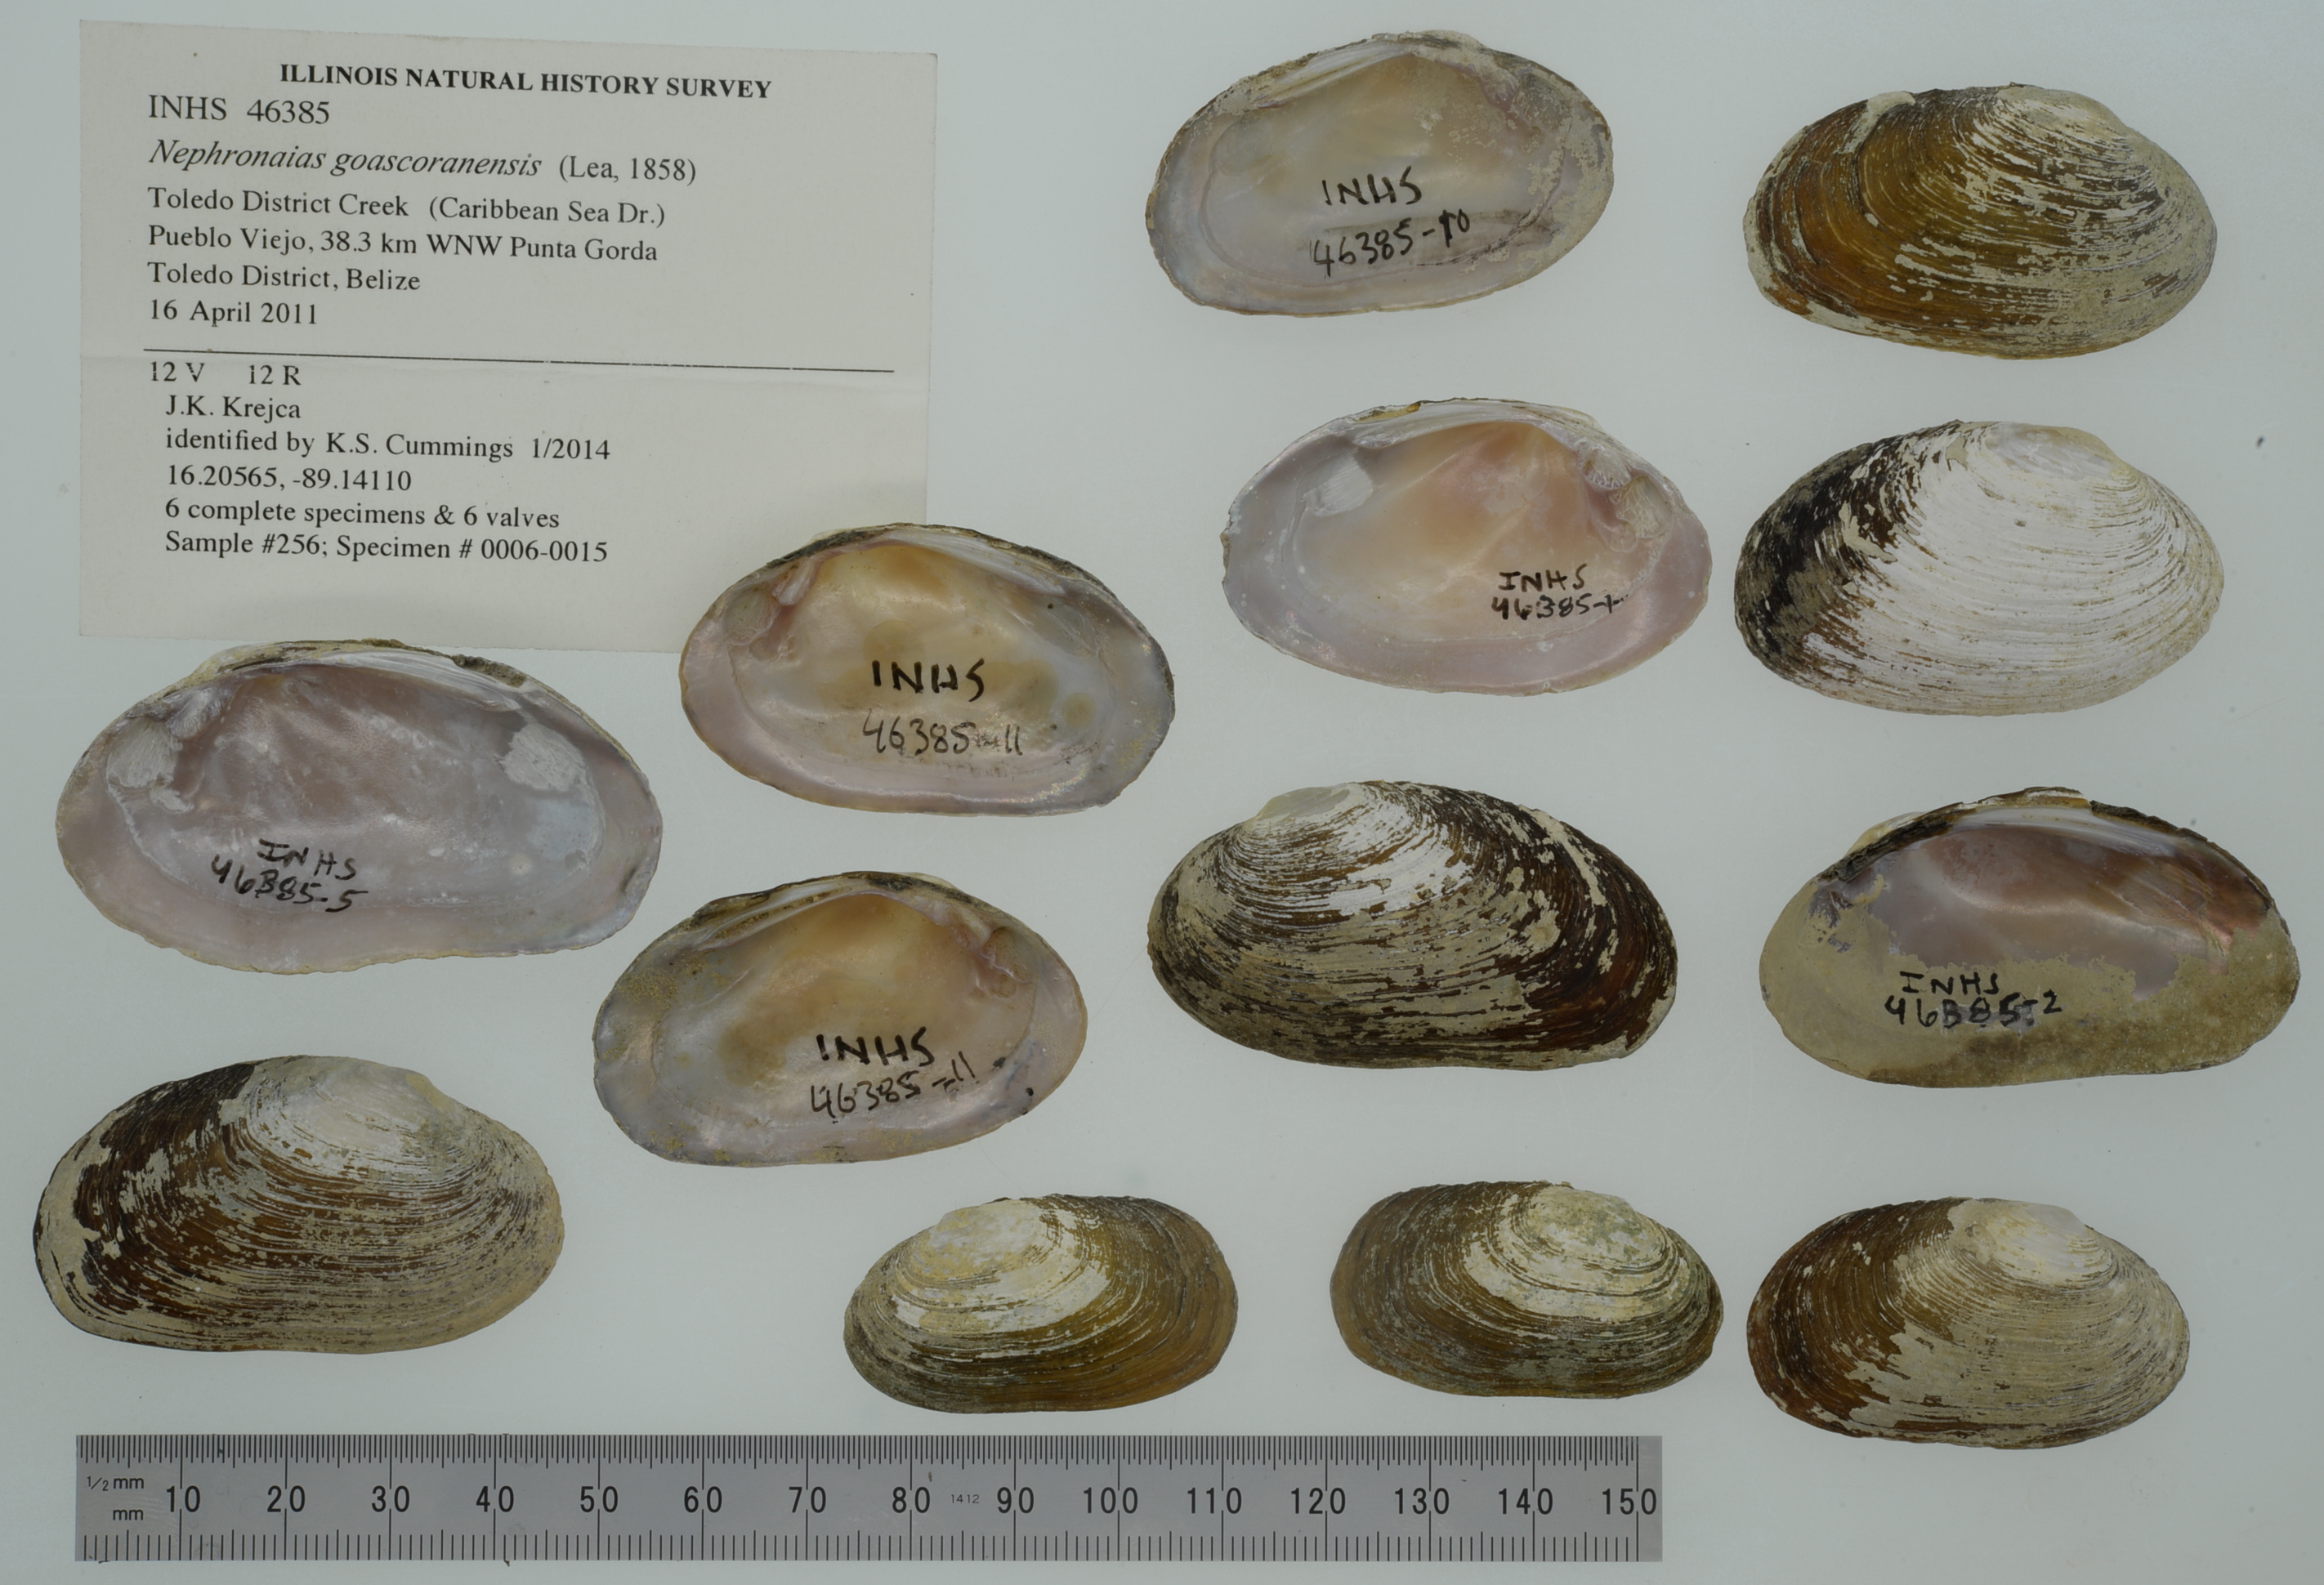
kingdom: Animalia
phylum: Mollusca
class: Bivalvia
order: Unionida
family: Unionidae
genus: Nephronaias
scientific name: Nephronaias dysonii
